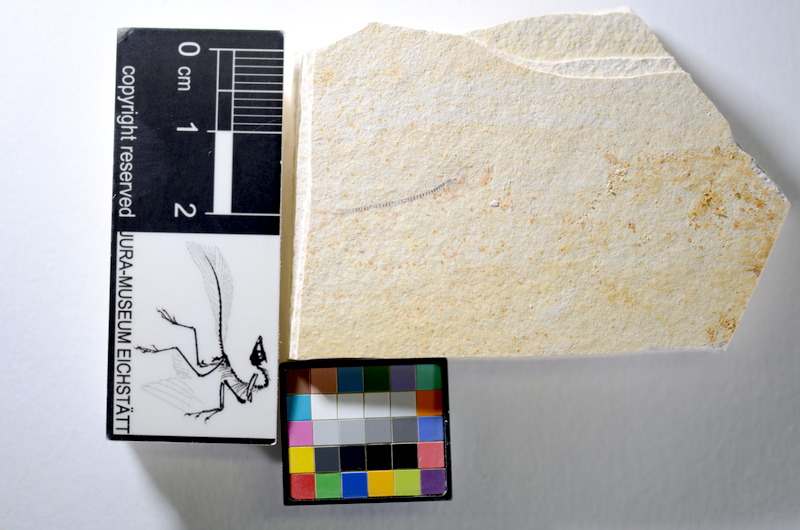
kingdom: Animalia
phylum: Chordata
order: Salmoniformes
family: Orthogonikleithridae
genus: Orthogonikleithrus
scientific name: Orthogonikleithrus hoelli
